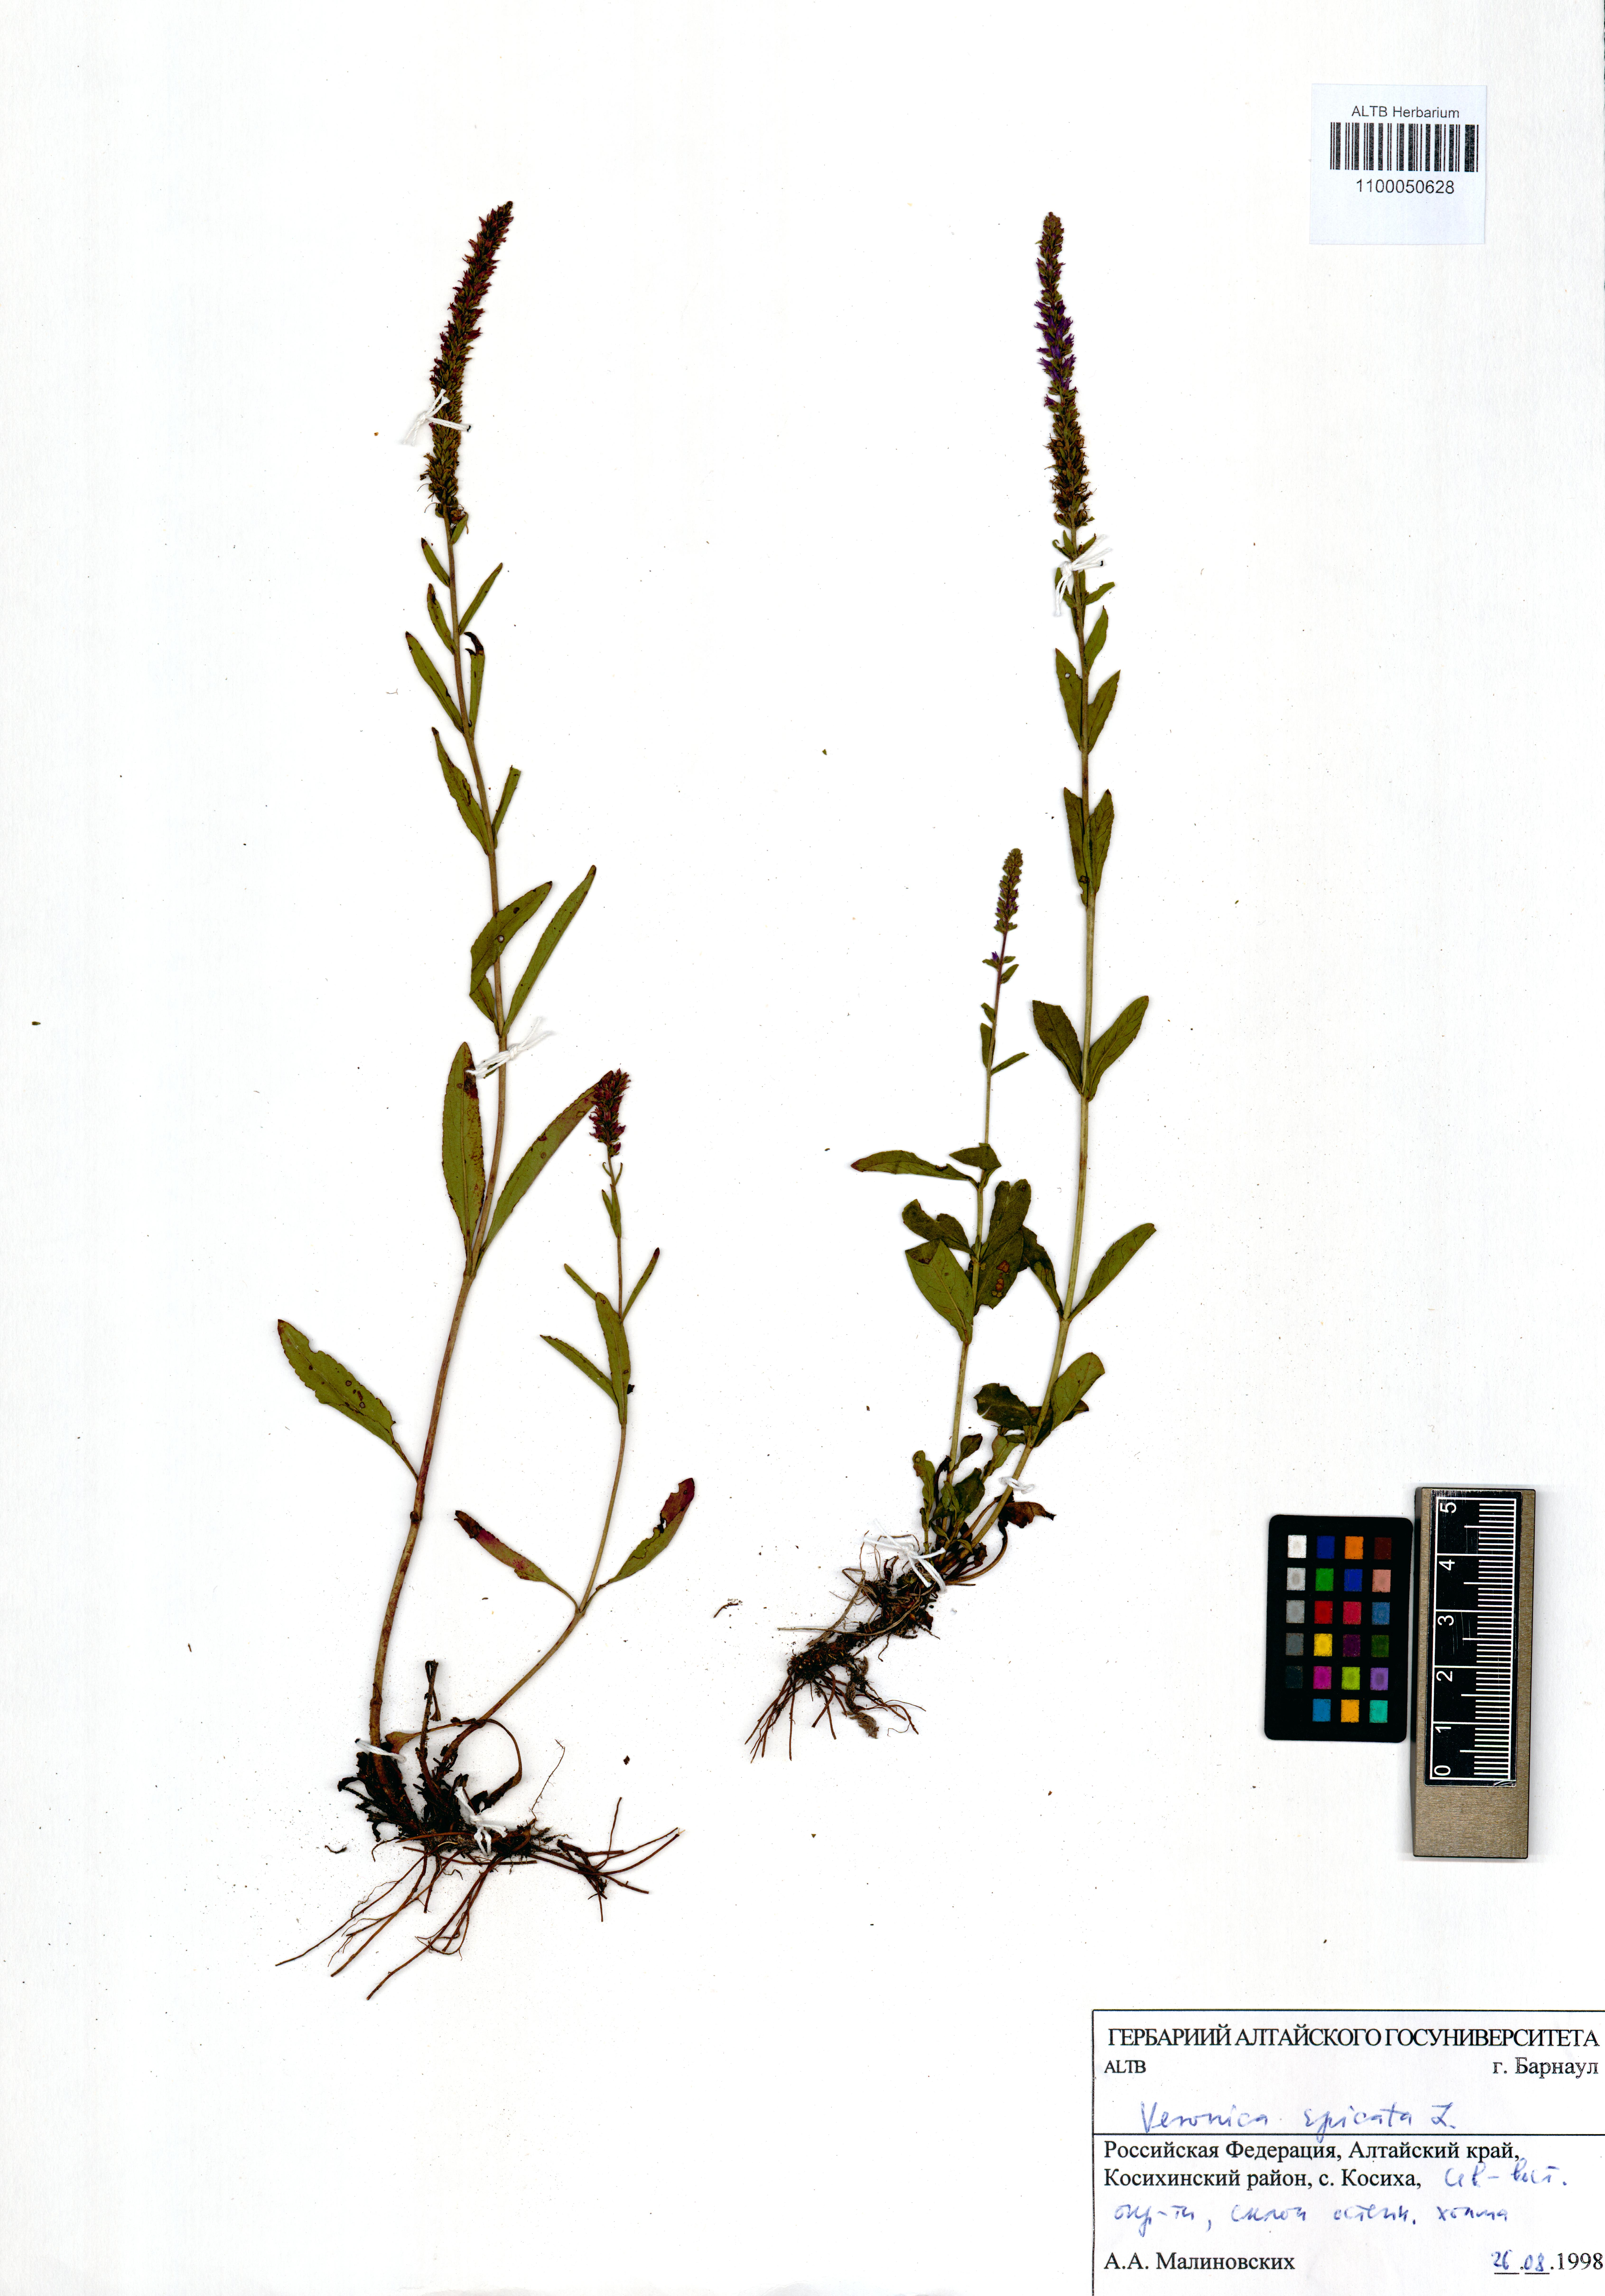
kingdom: Plantae
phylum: Tracheophyta
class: Magnoliopsida
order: Lamiales
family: Plantaginaceae
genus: Veronica
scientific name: Veronica spicata
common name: Spiked speedwell
